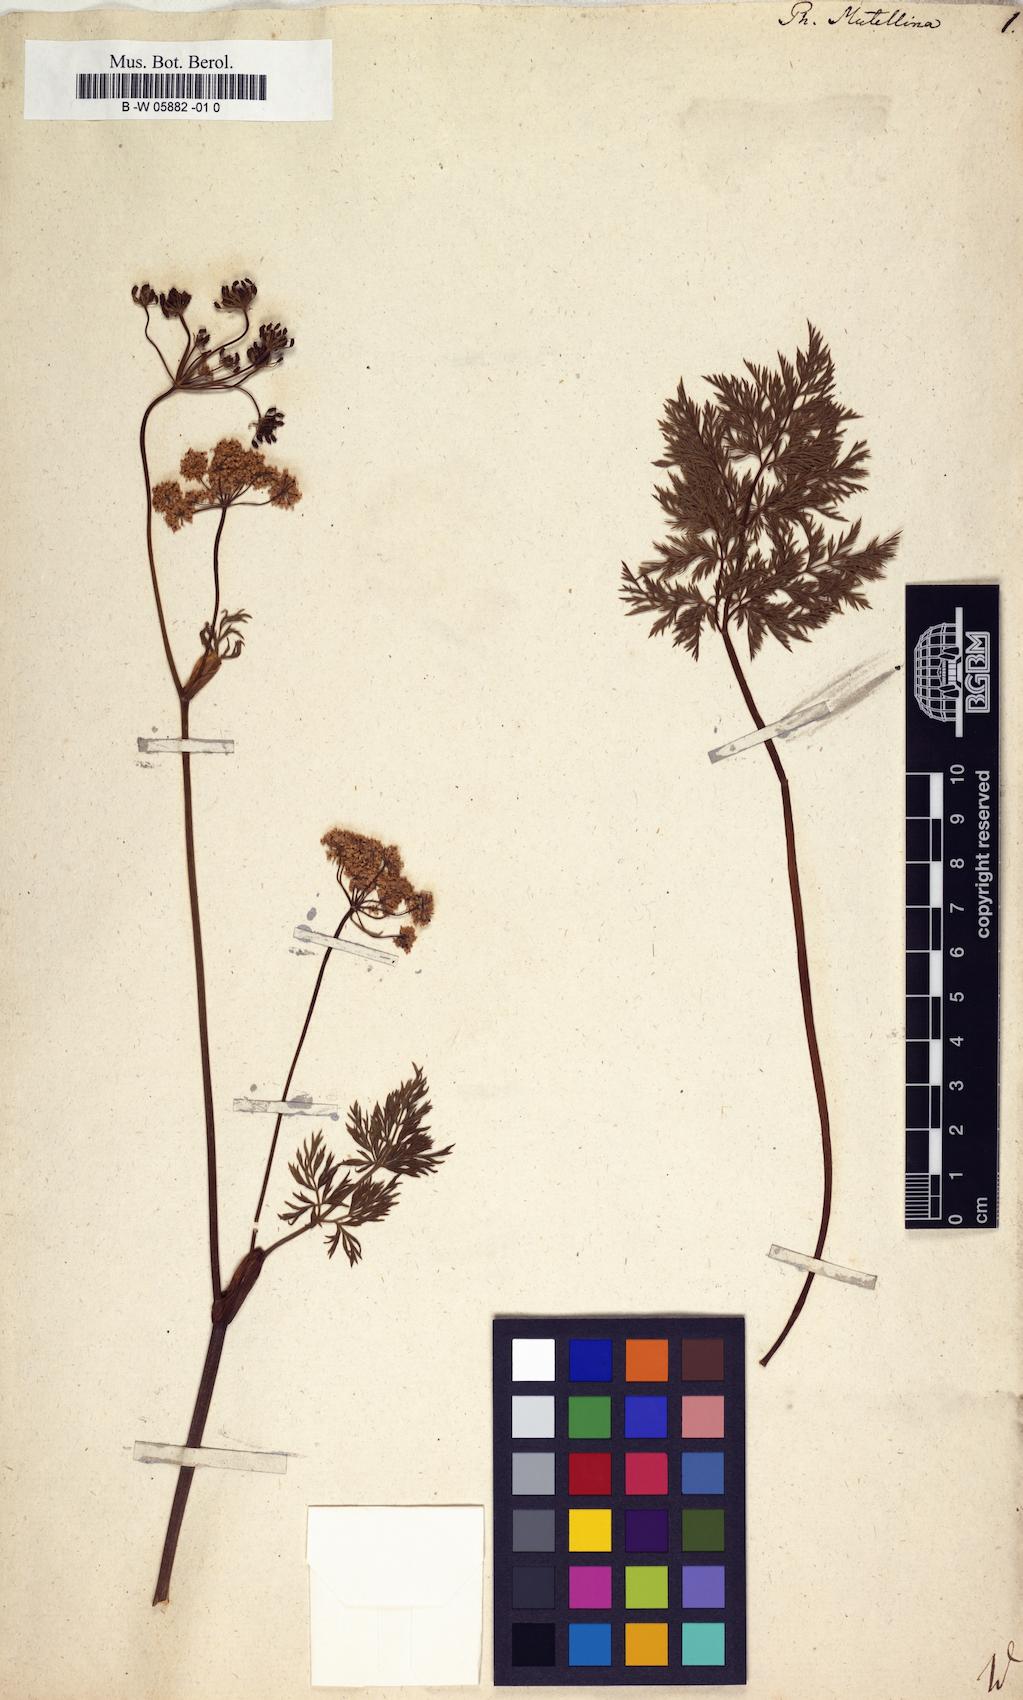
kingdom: Plantae
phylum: Tracheophyta
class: Magnoliopsida
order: Apiales
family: Apiaceae
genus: Mutellina
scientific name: Mutellina adonidifolia
